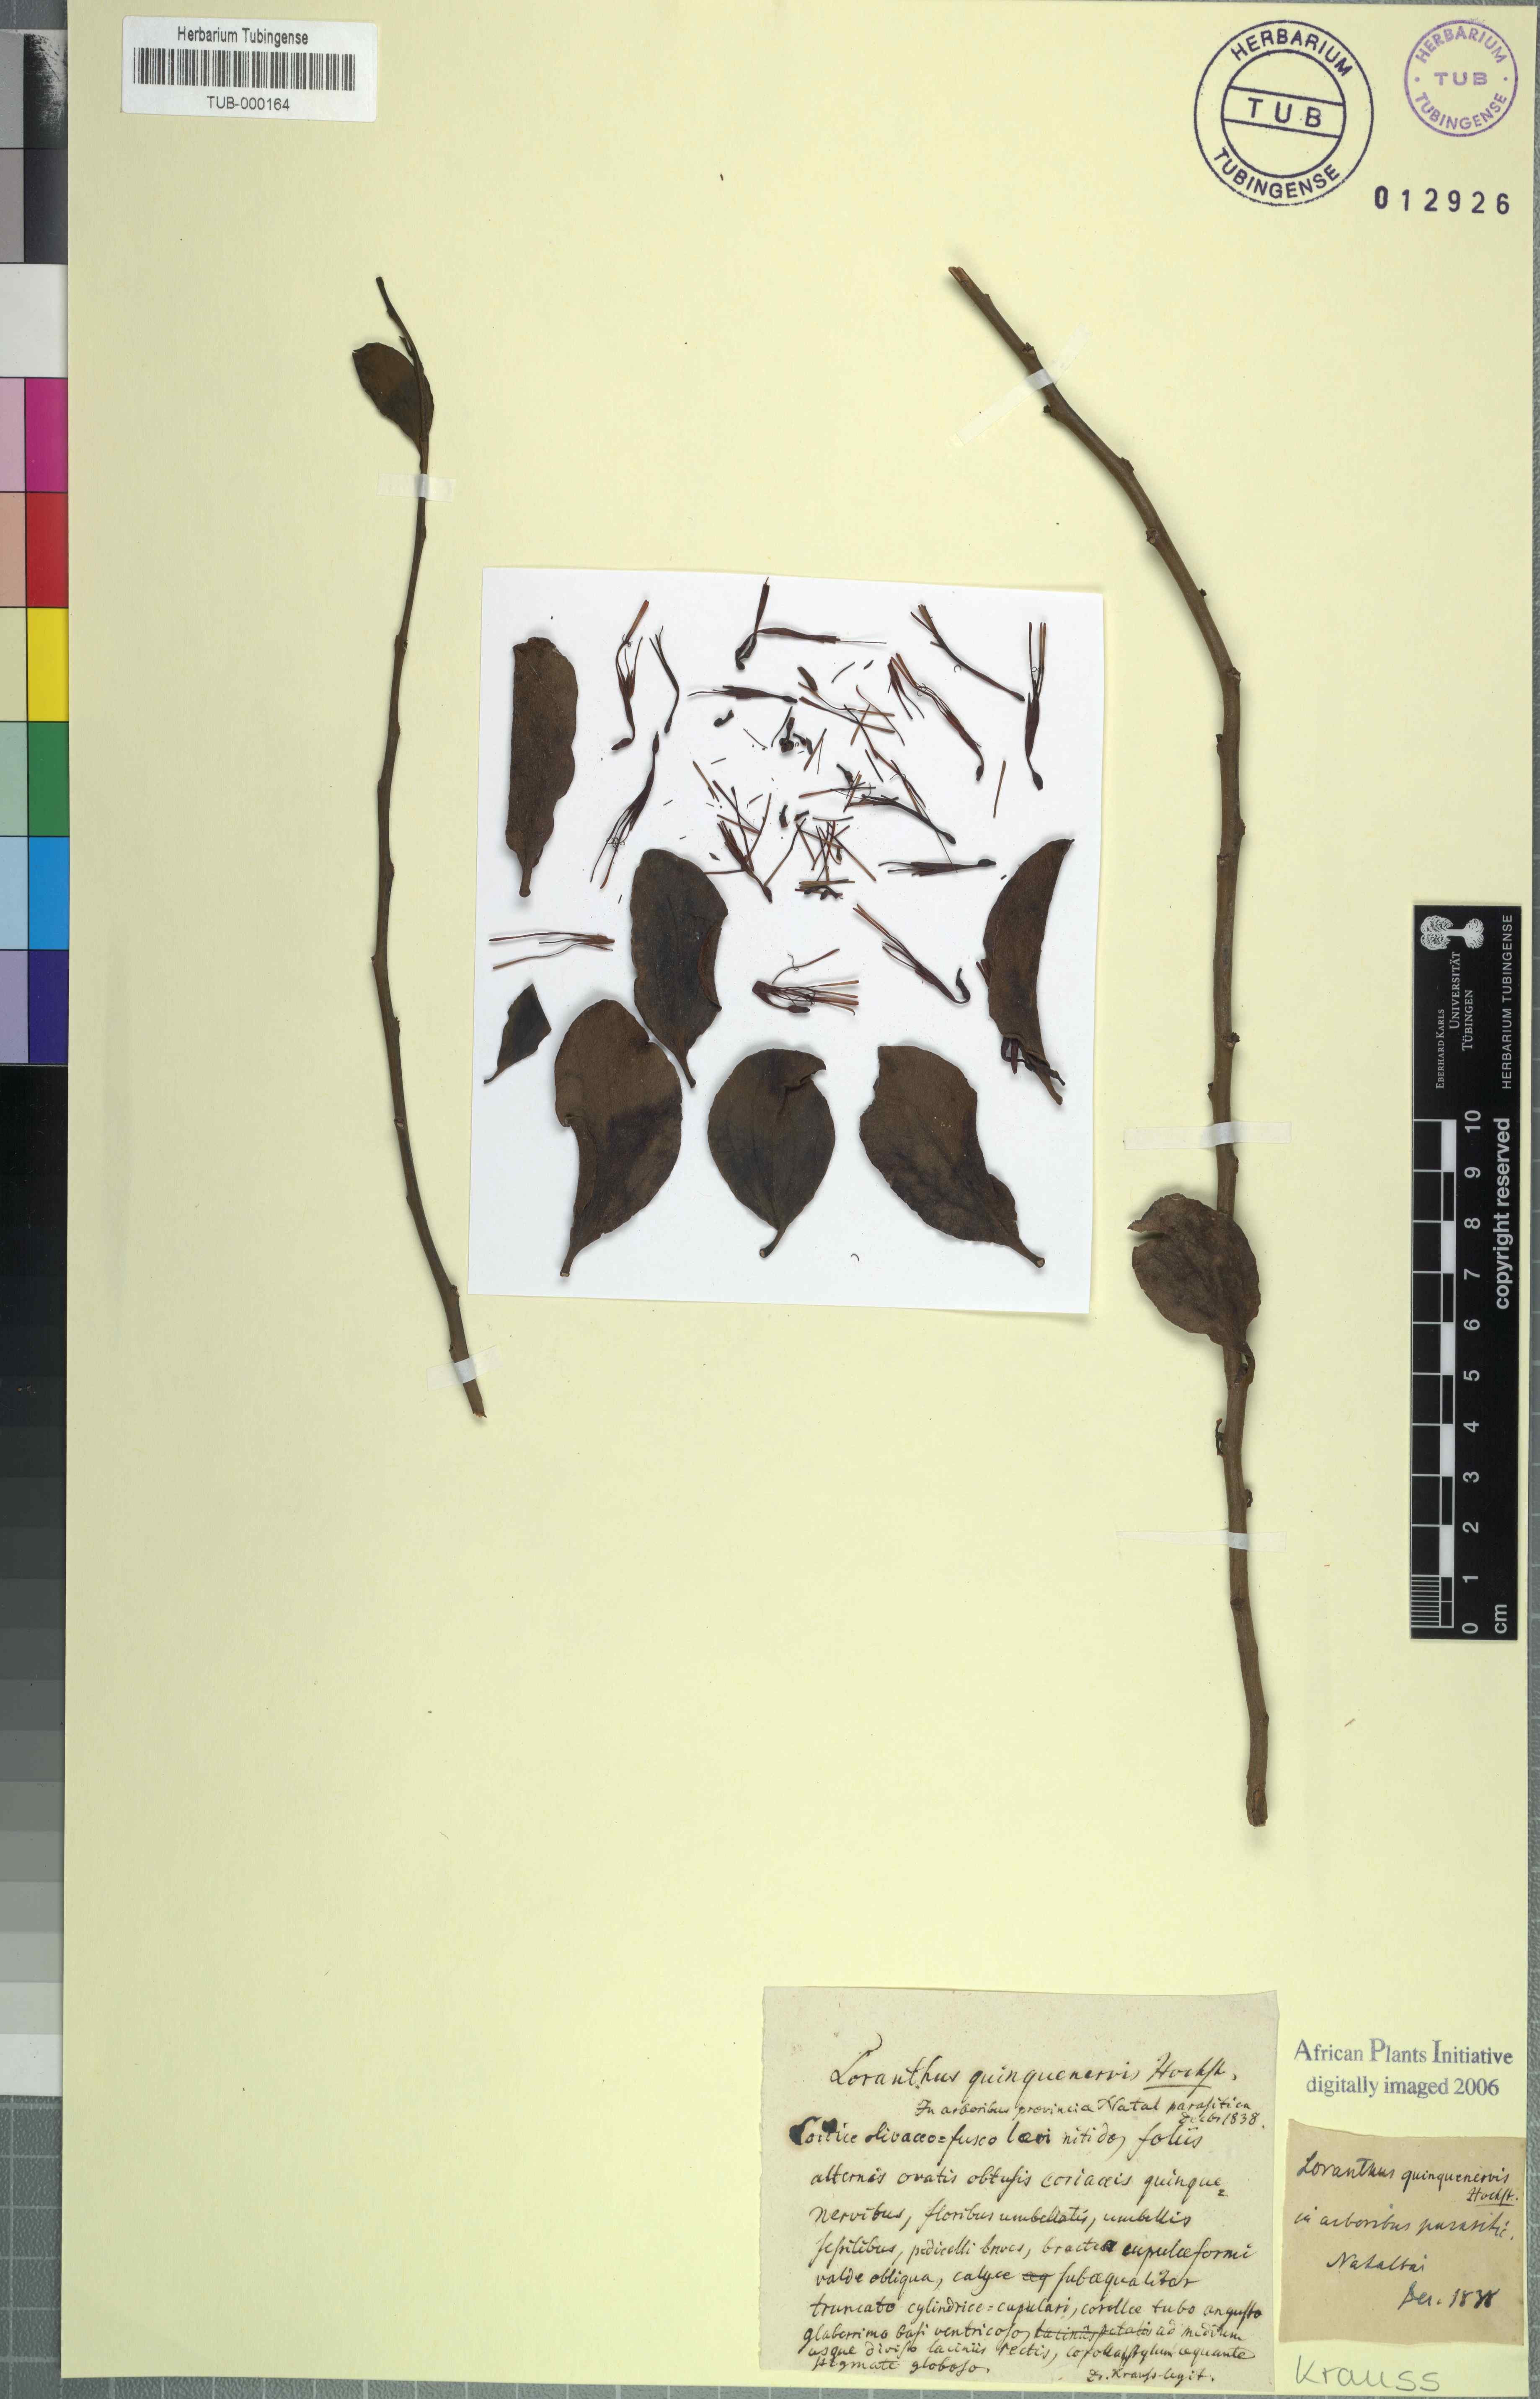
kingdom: Plantae
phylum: Tracheophyta
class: Magnoliopsida
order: Santalales
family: Loranthaceae
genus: Oncocalyx
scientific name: Oncocalyx quinquenervis
